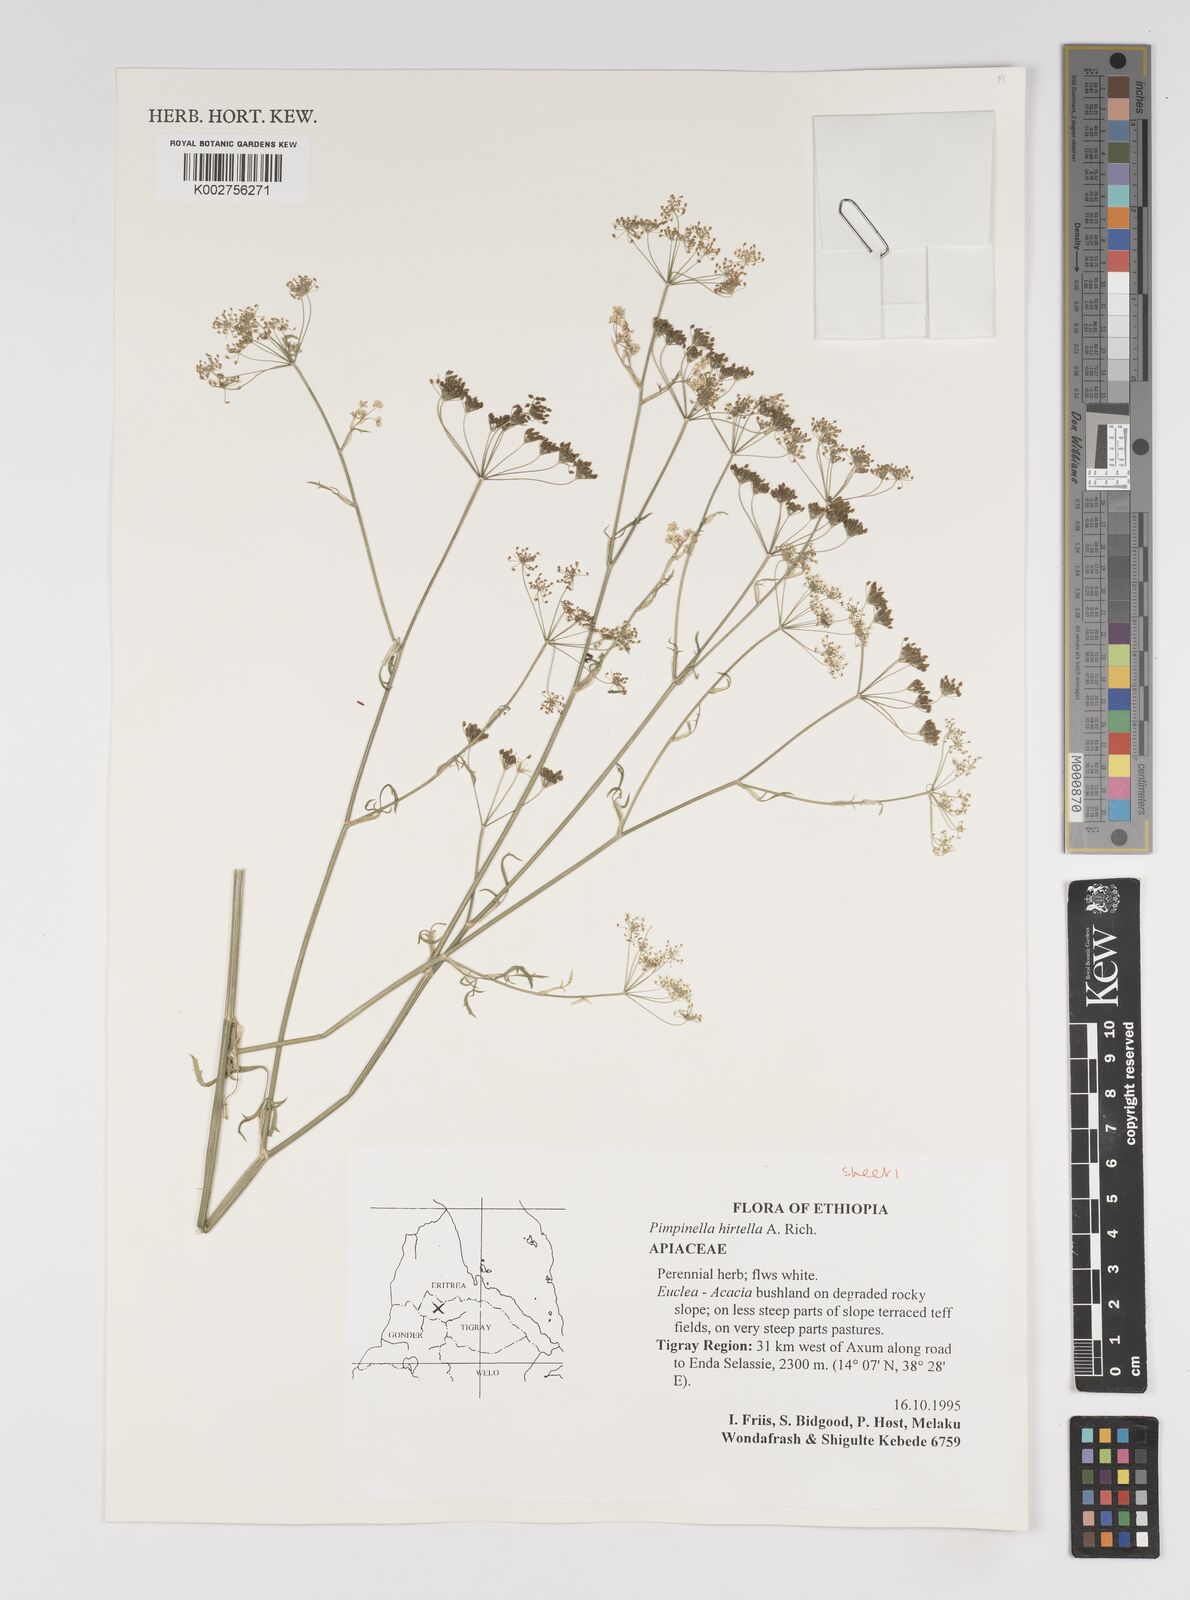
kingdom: Plantae
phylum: Tracheophyta
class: Magnoliopsida
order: Apiales
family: Apiaceae
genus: Pimpinella
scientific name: Pimpinella hirtella
